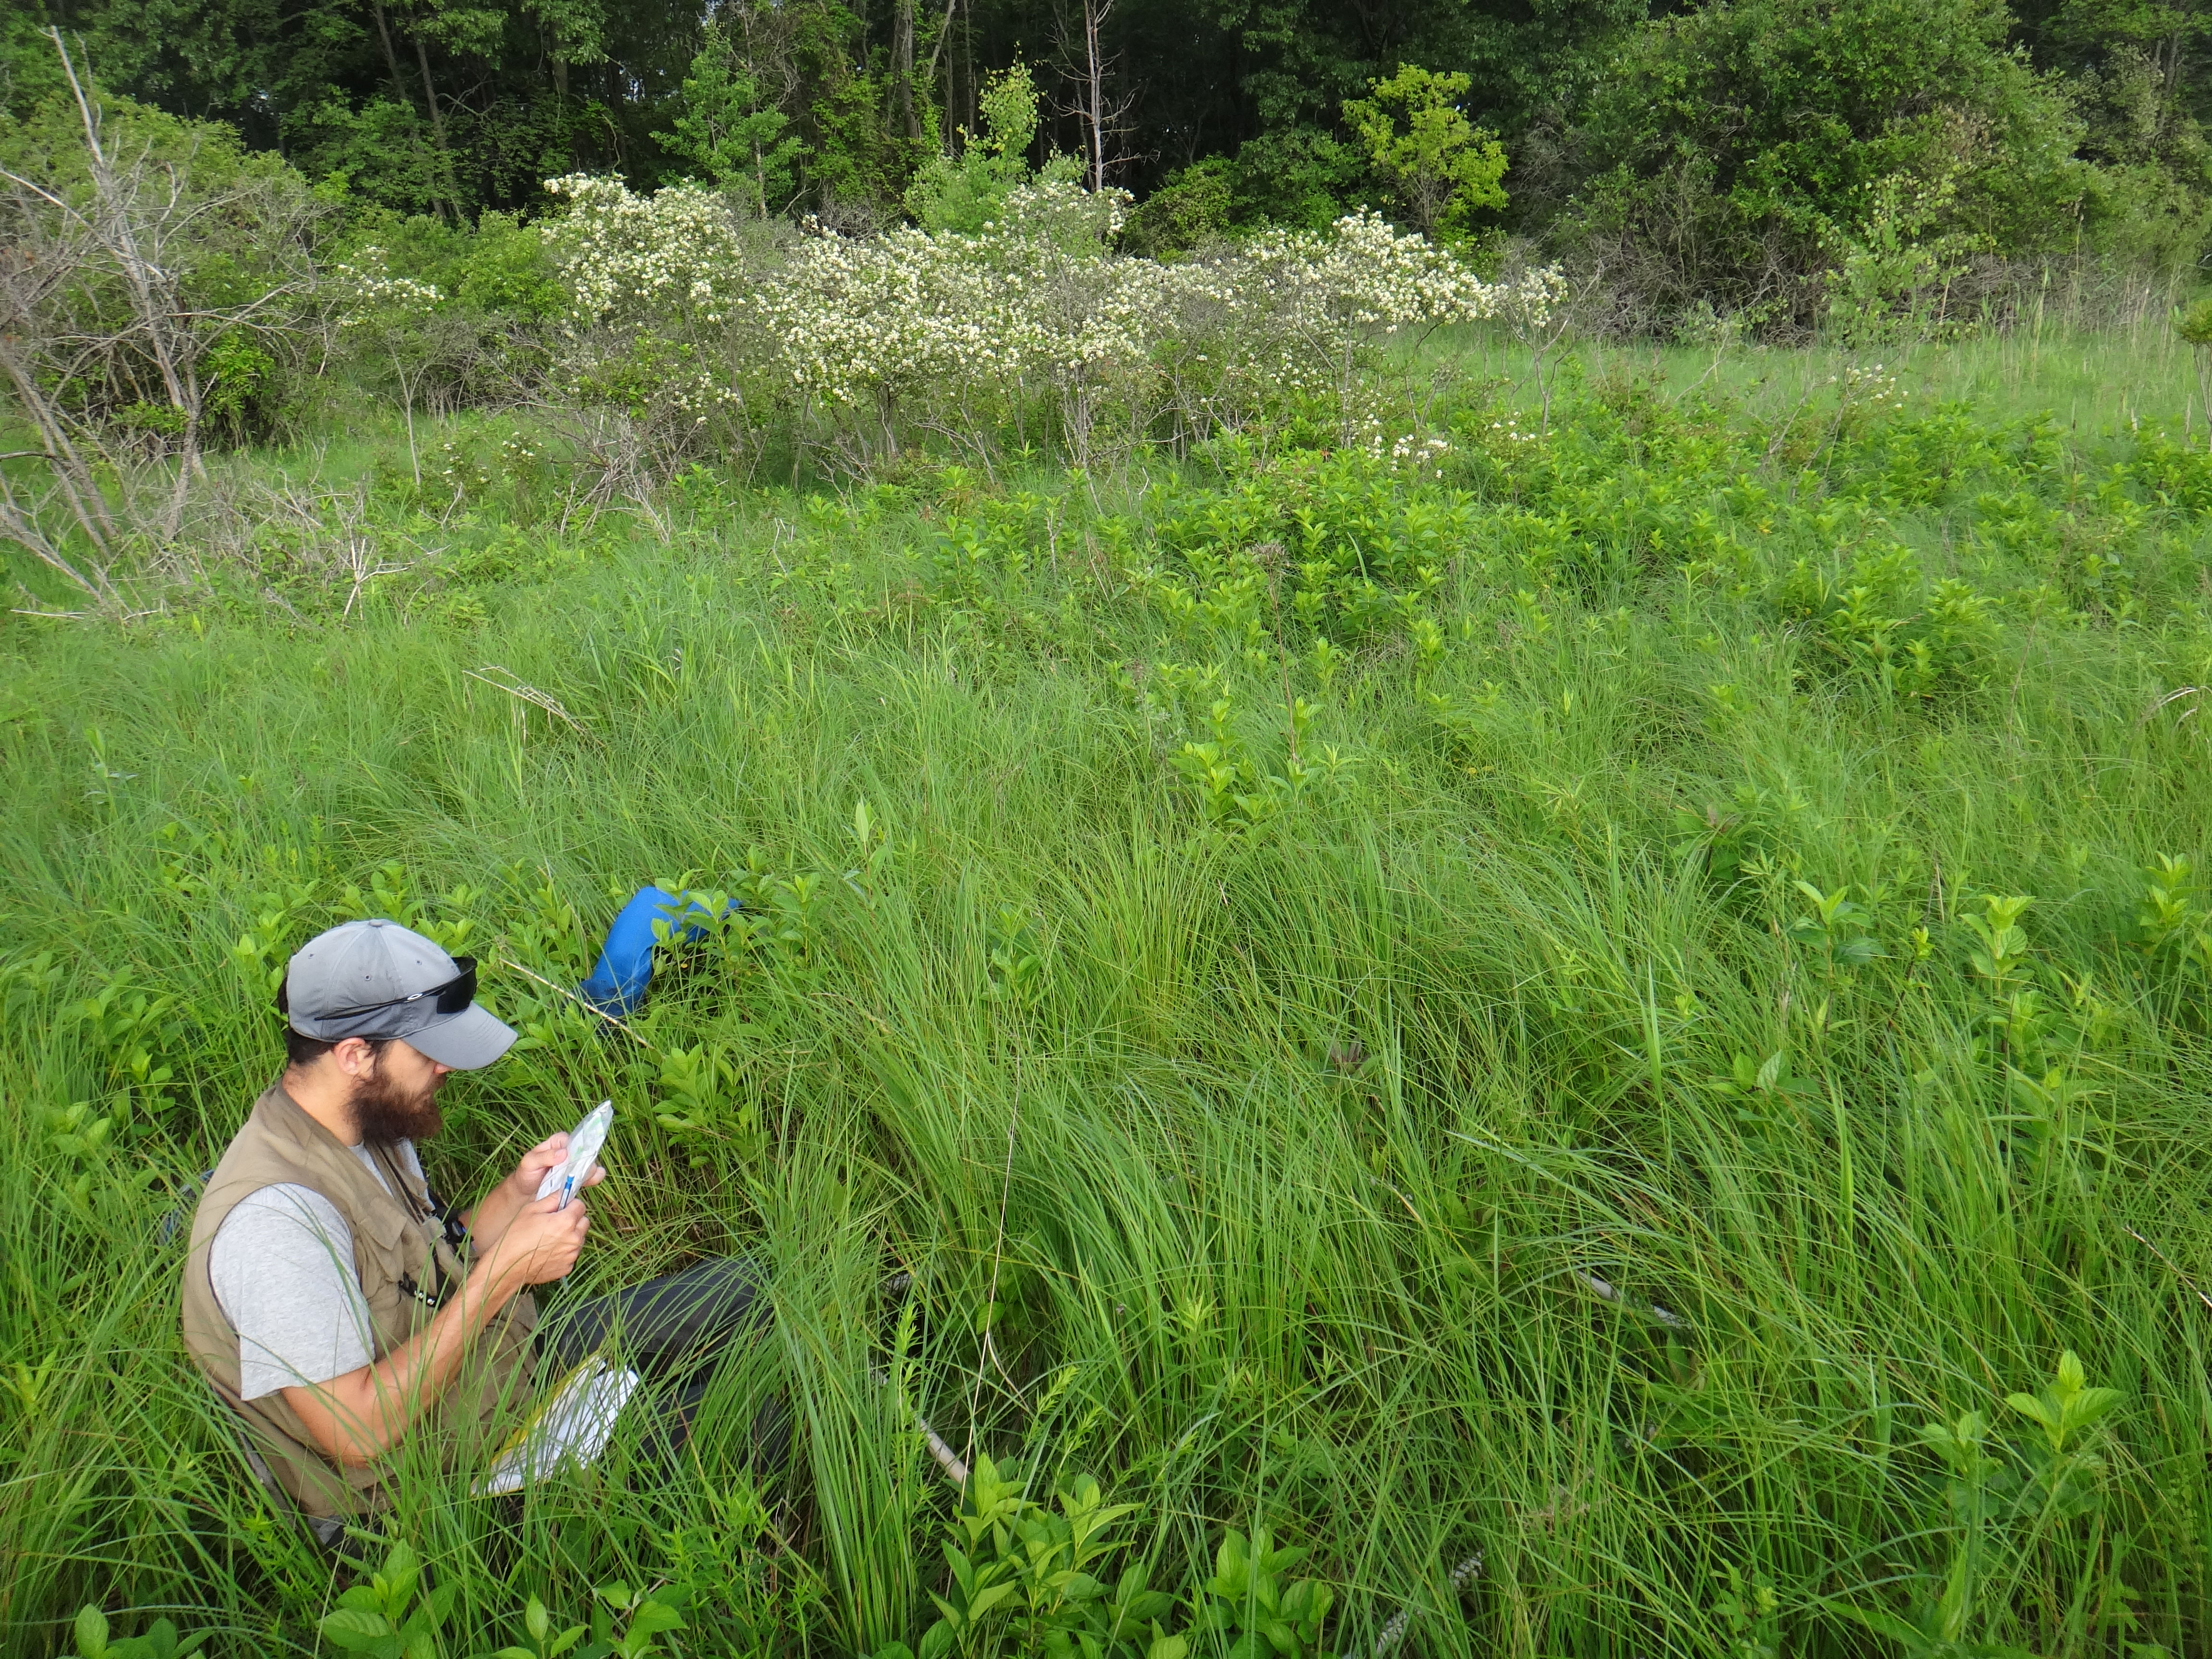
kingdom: Plantae
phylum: Tracheophyta
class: Magnoliopsida
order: Asterales
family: Asteraceae
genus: Bidens
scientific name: Bidens trichosperma
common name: Crowned beggarticks
